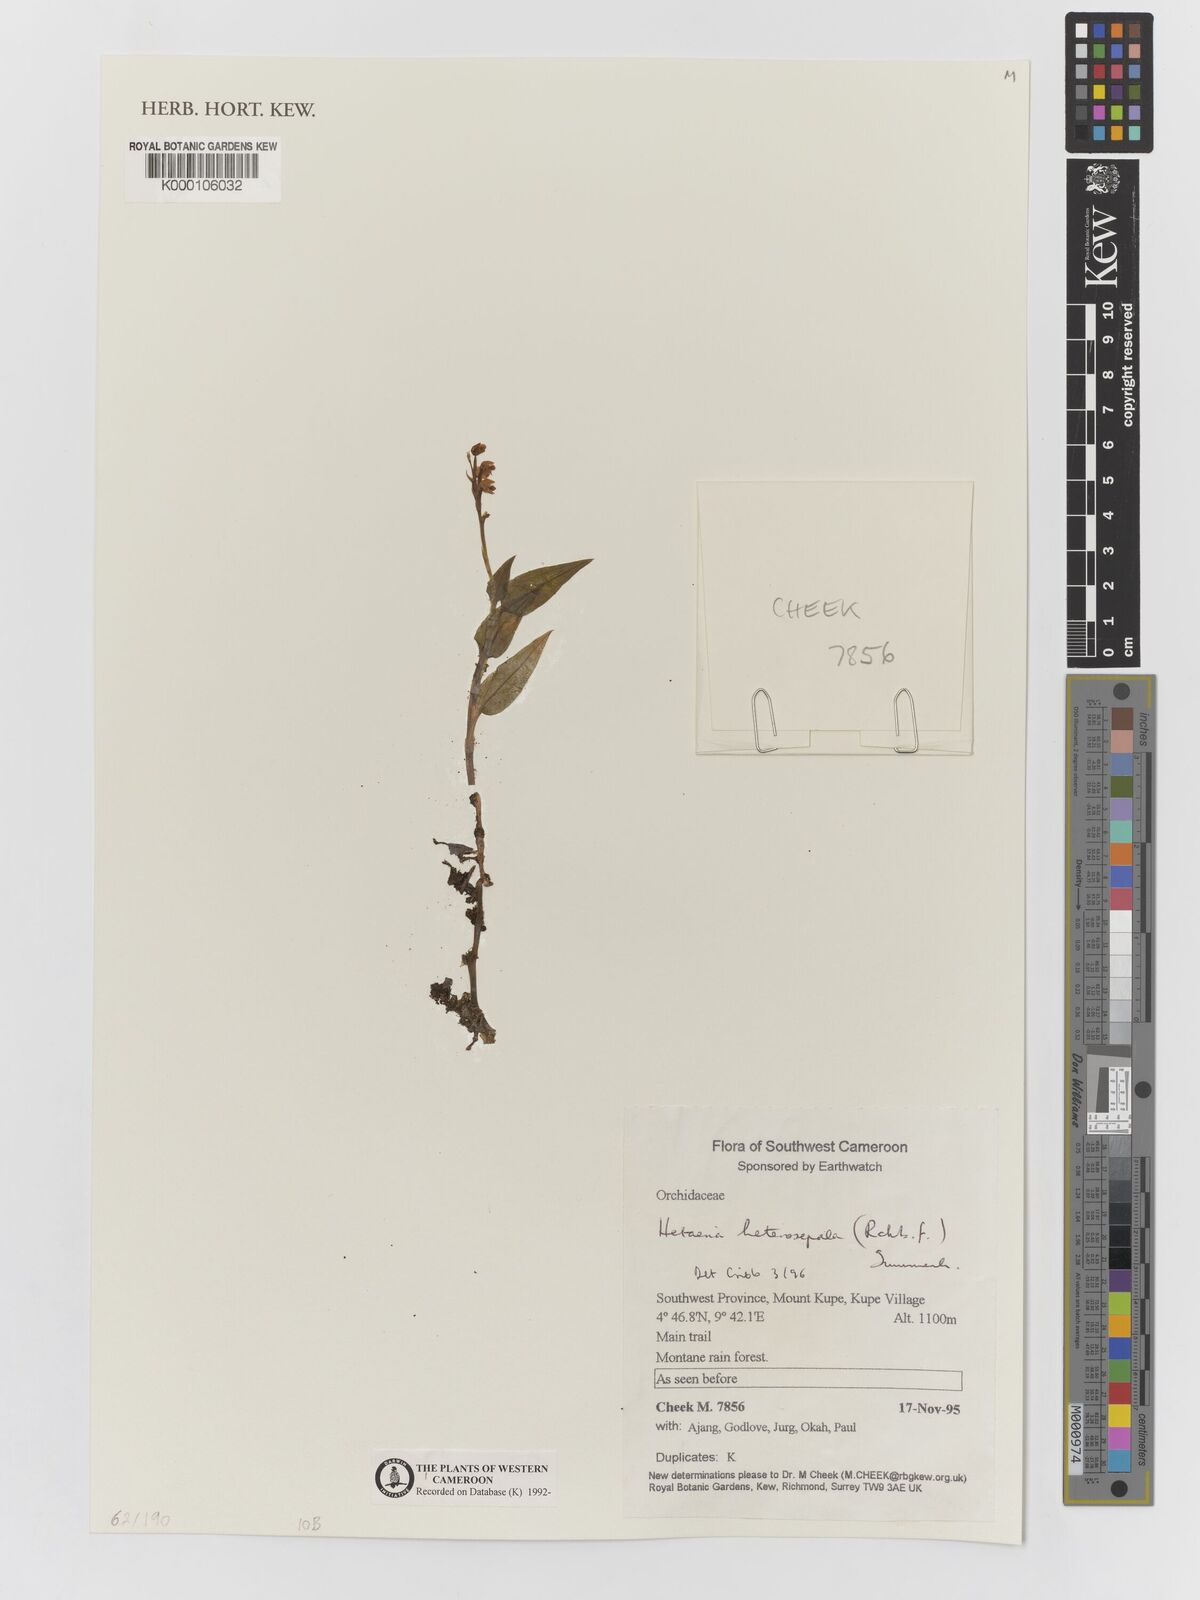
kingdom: Plantae
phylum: Tracheophyta
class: Liliopsida
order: Asparagales
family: Orchidaceae
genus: Hetaeria
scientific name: Hetaeria heterosepala
